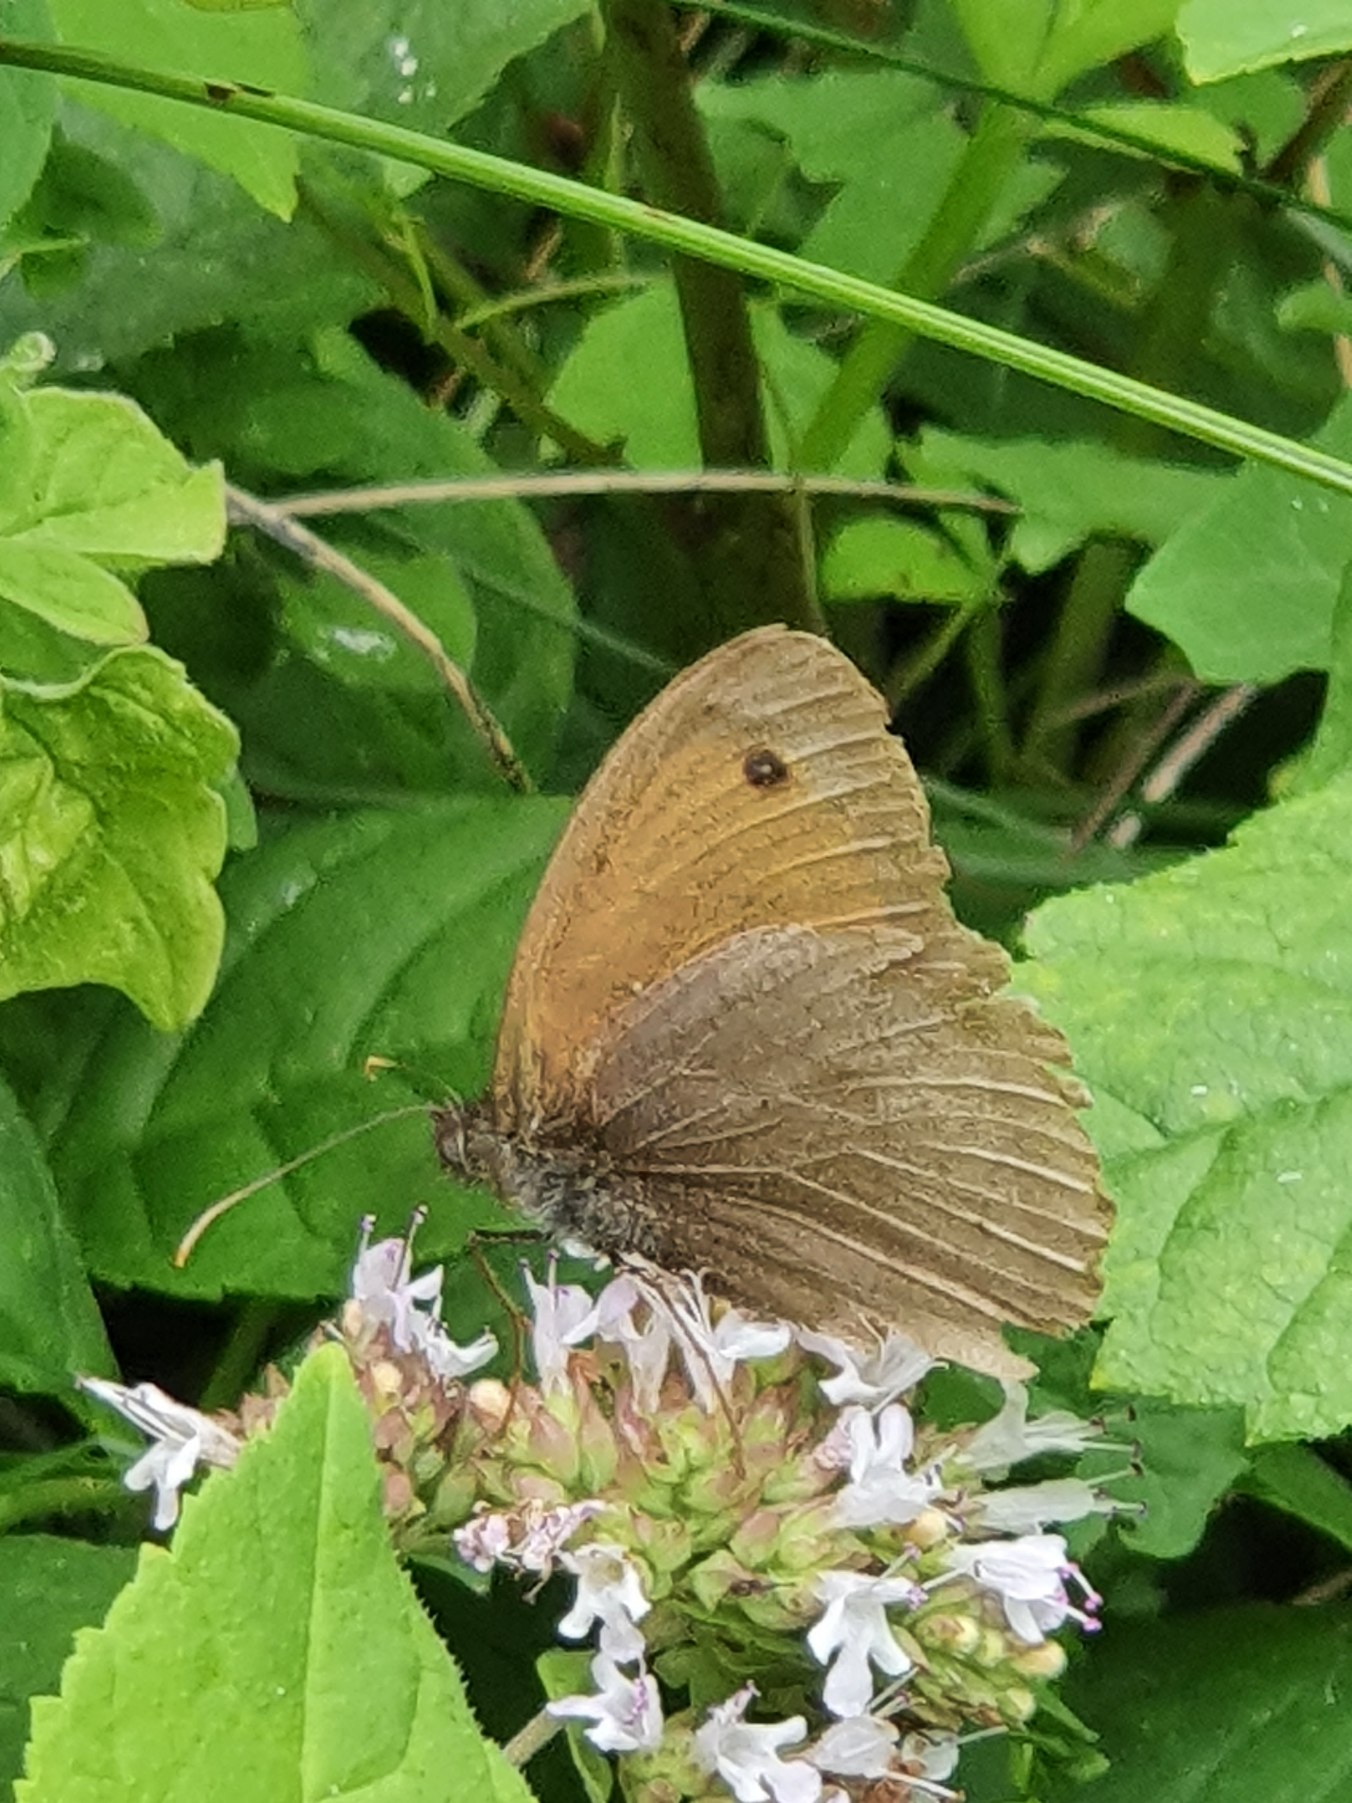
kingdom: Animalia
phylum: Arthropoda
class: Insecta
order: Lepidoptera
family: Nymphalidae
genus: Maniola
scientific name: Maniola jurtina
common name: Græsrandøje
